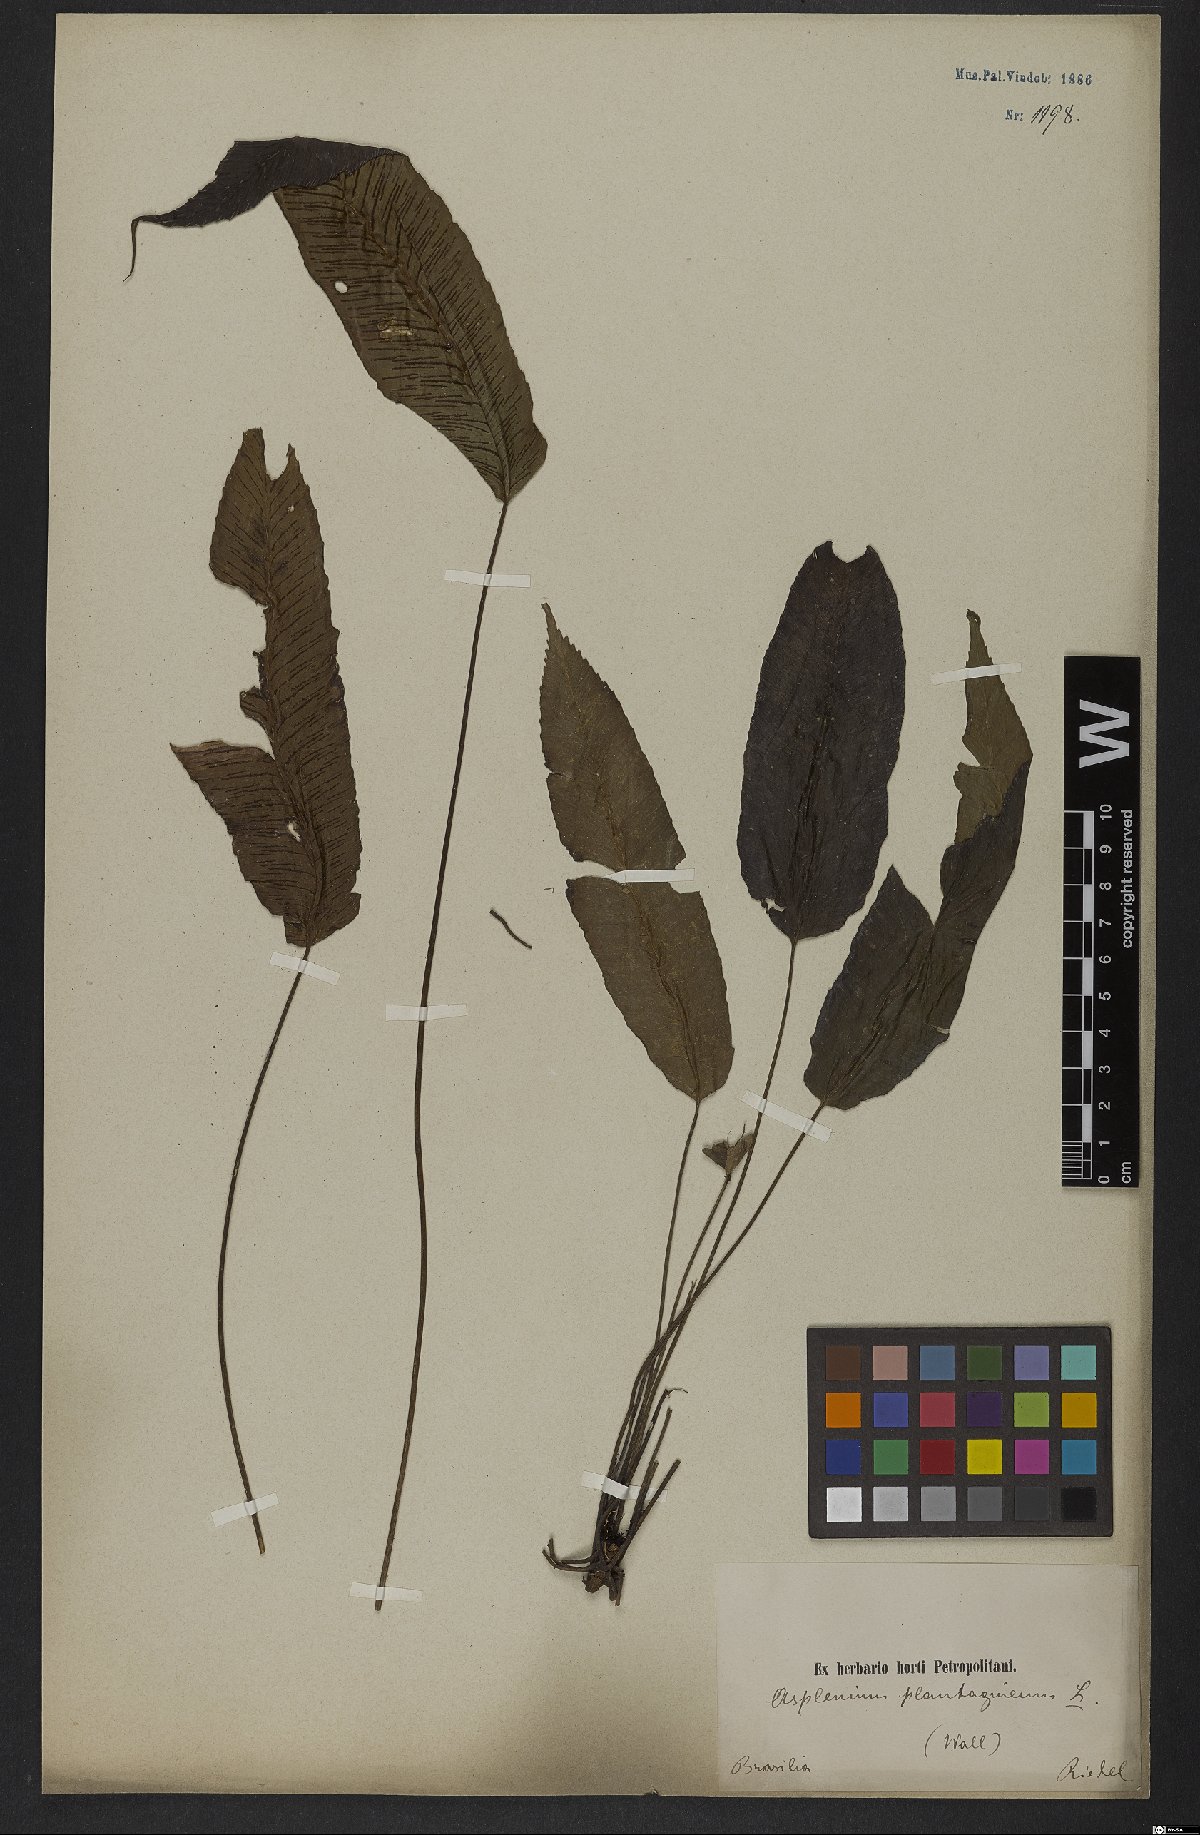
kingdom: Plantae
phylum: Tracheophyta
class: Polypodiopsida
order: Polypodiales
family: Athyriaceae
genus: Diplazium
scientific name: Diplazium plantaginifolium
